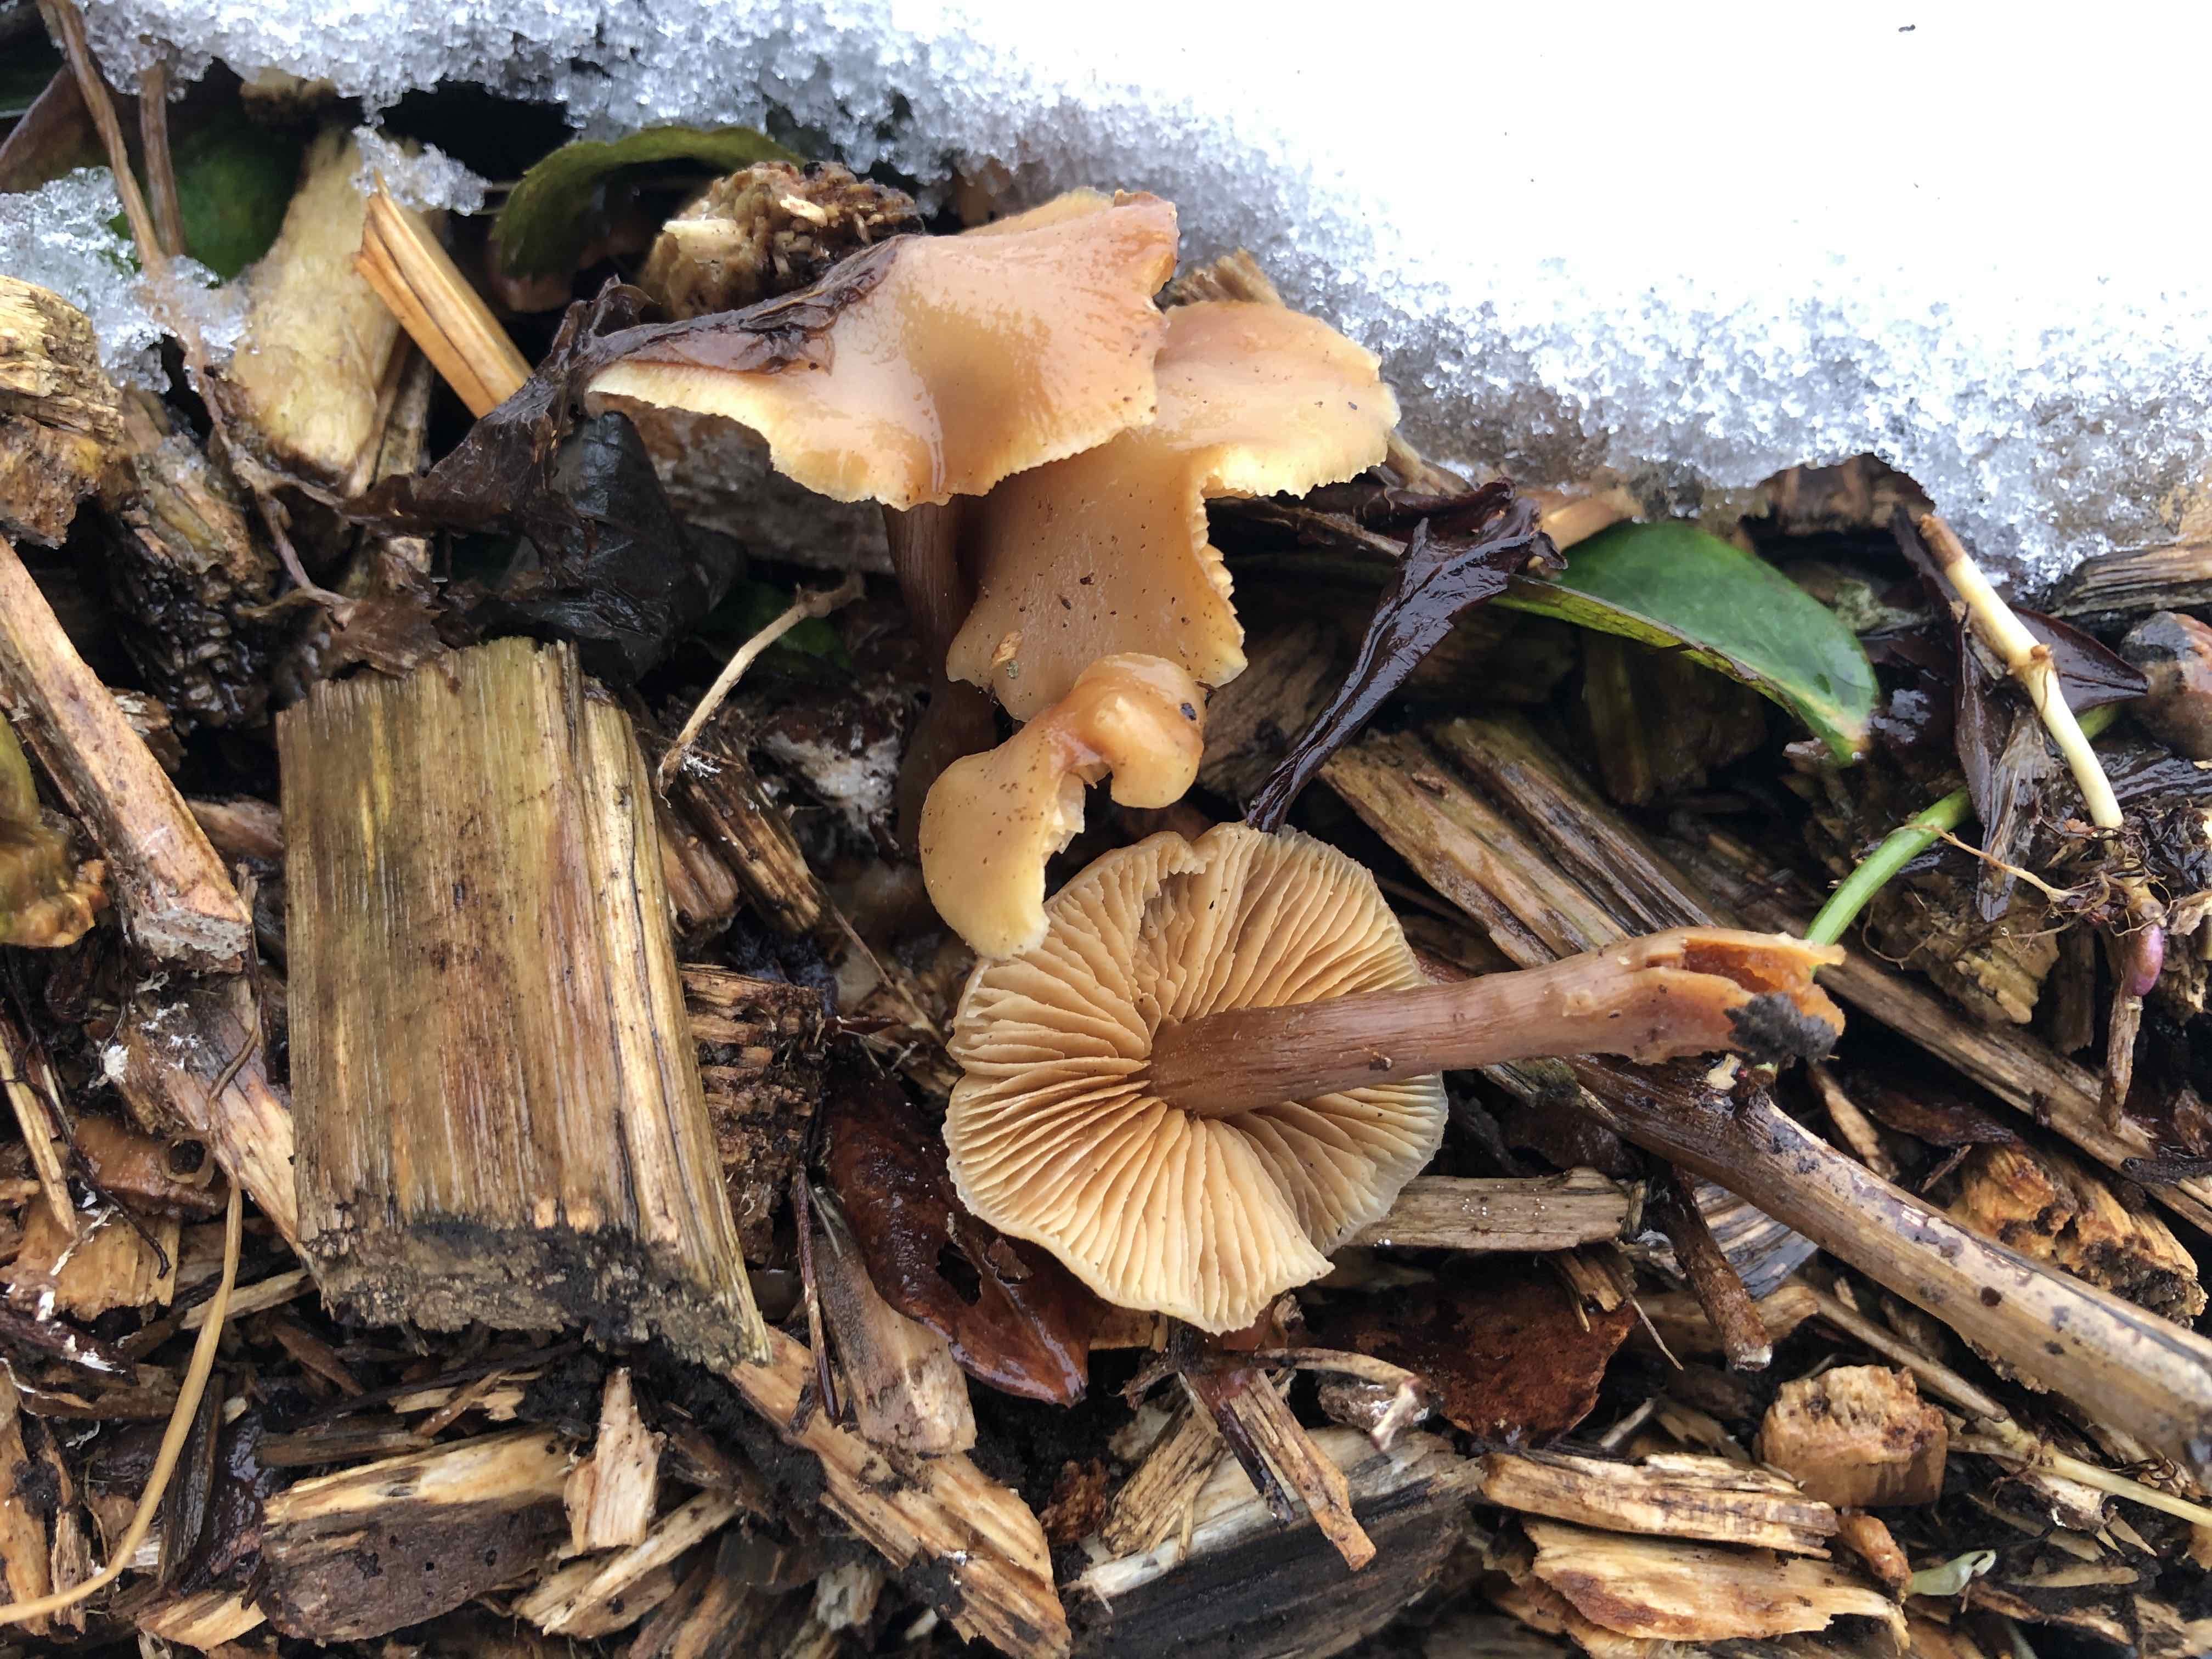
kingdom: Fungi
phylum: Basidiomycota
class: Agaricomycetes
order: Agaricales
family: Tubariaceae
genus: Tubaria
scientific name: Tubaria furfuracea
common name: kliddet fnughat
